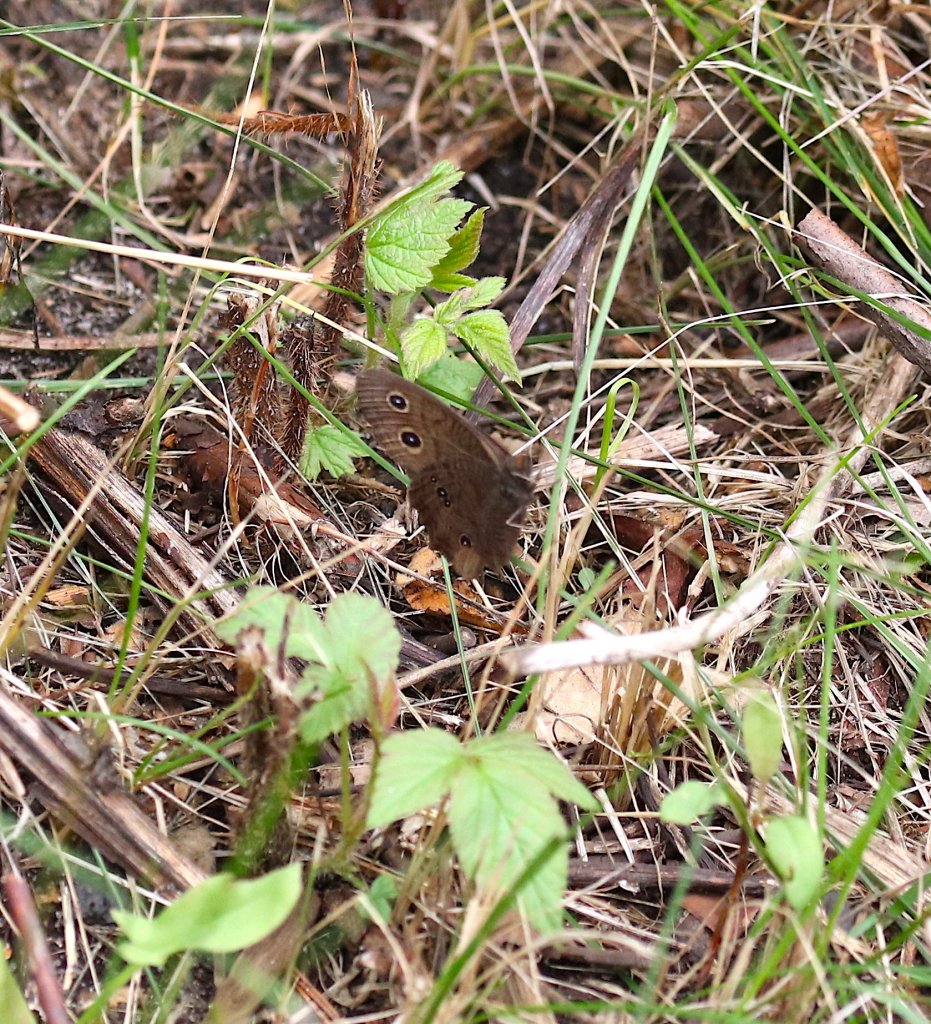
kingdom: Animalia
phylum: Arthropoda
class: Insecta
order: Lepidoptera
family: Nymphalidae
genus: Cercyonis
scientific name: Cercyonis pegala
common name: Common Wood-Nymph
